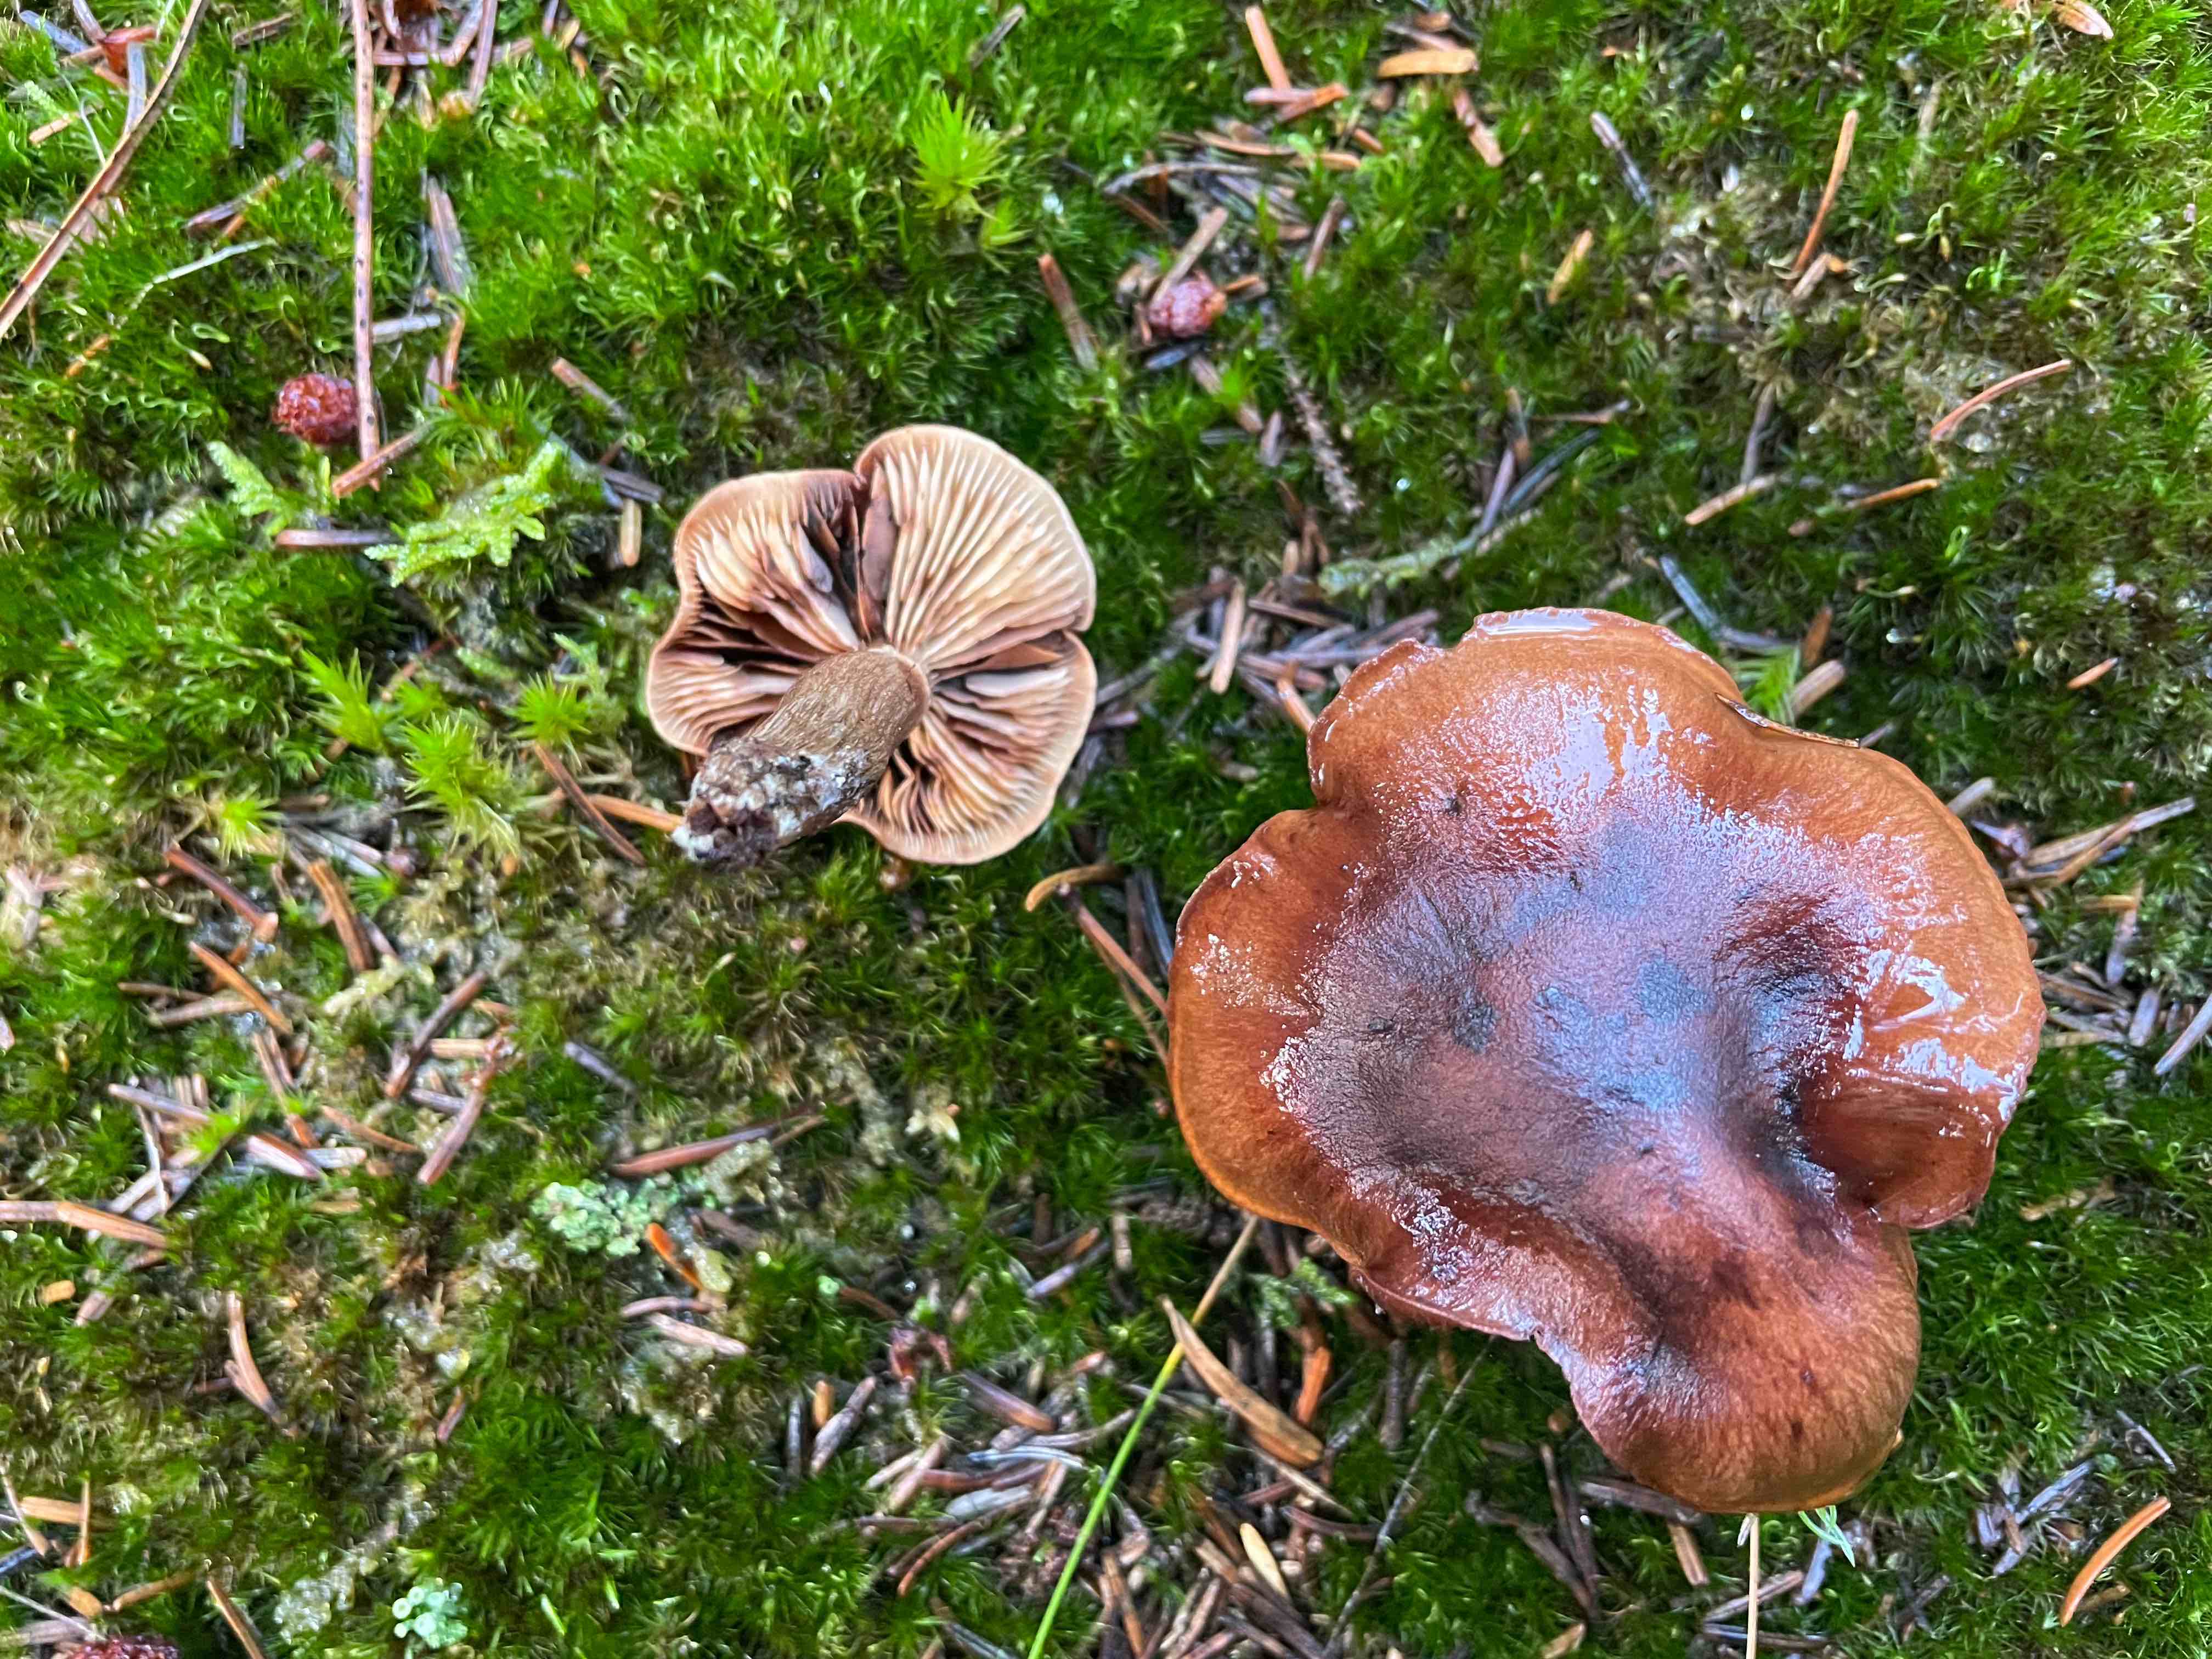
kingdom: Fungi
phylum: Basidiomycota
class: Agaricomycetes
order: Agaricales
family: Tricholomataceae
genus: Tricholoma
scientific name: Tricholoma fulvum
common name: birke-ridderhat
